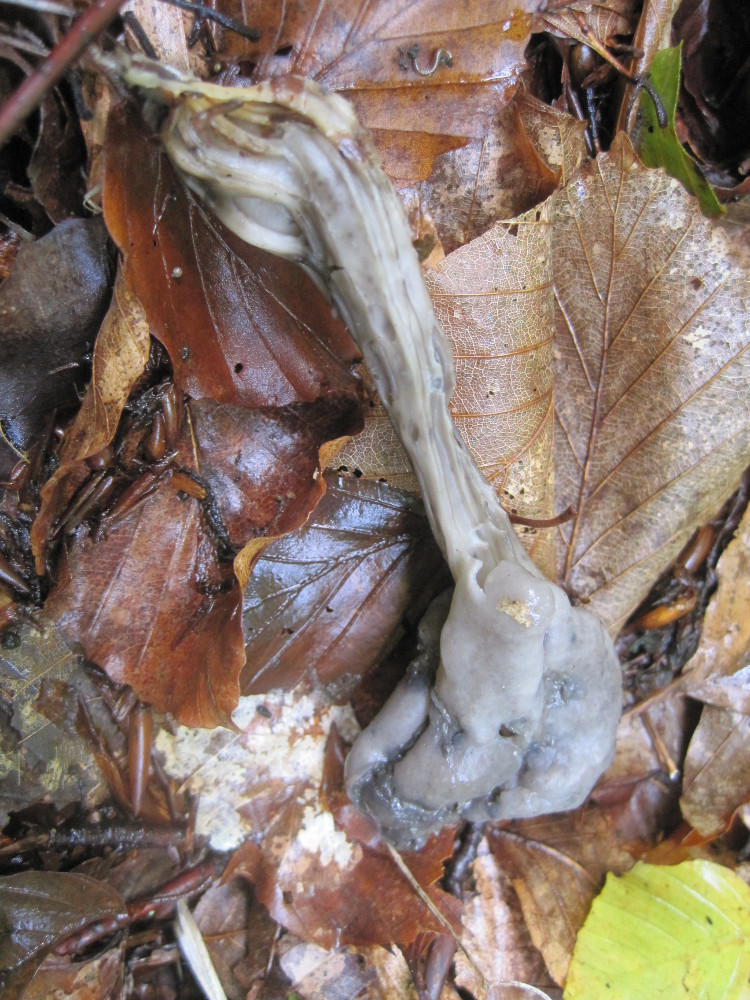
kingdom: Fungi
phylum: Ascomycota
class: Pezizomycetes
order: Pezizales
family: Helvellaceae
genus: Helvella
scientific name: Helvella lacunosa
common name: grubet foldhat
